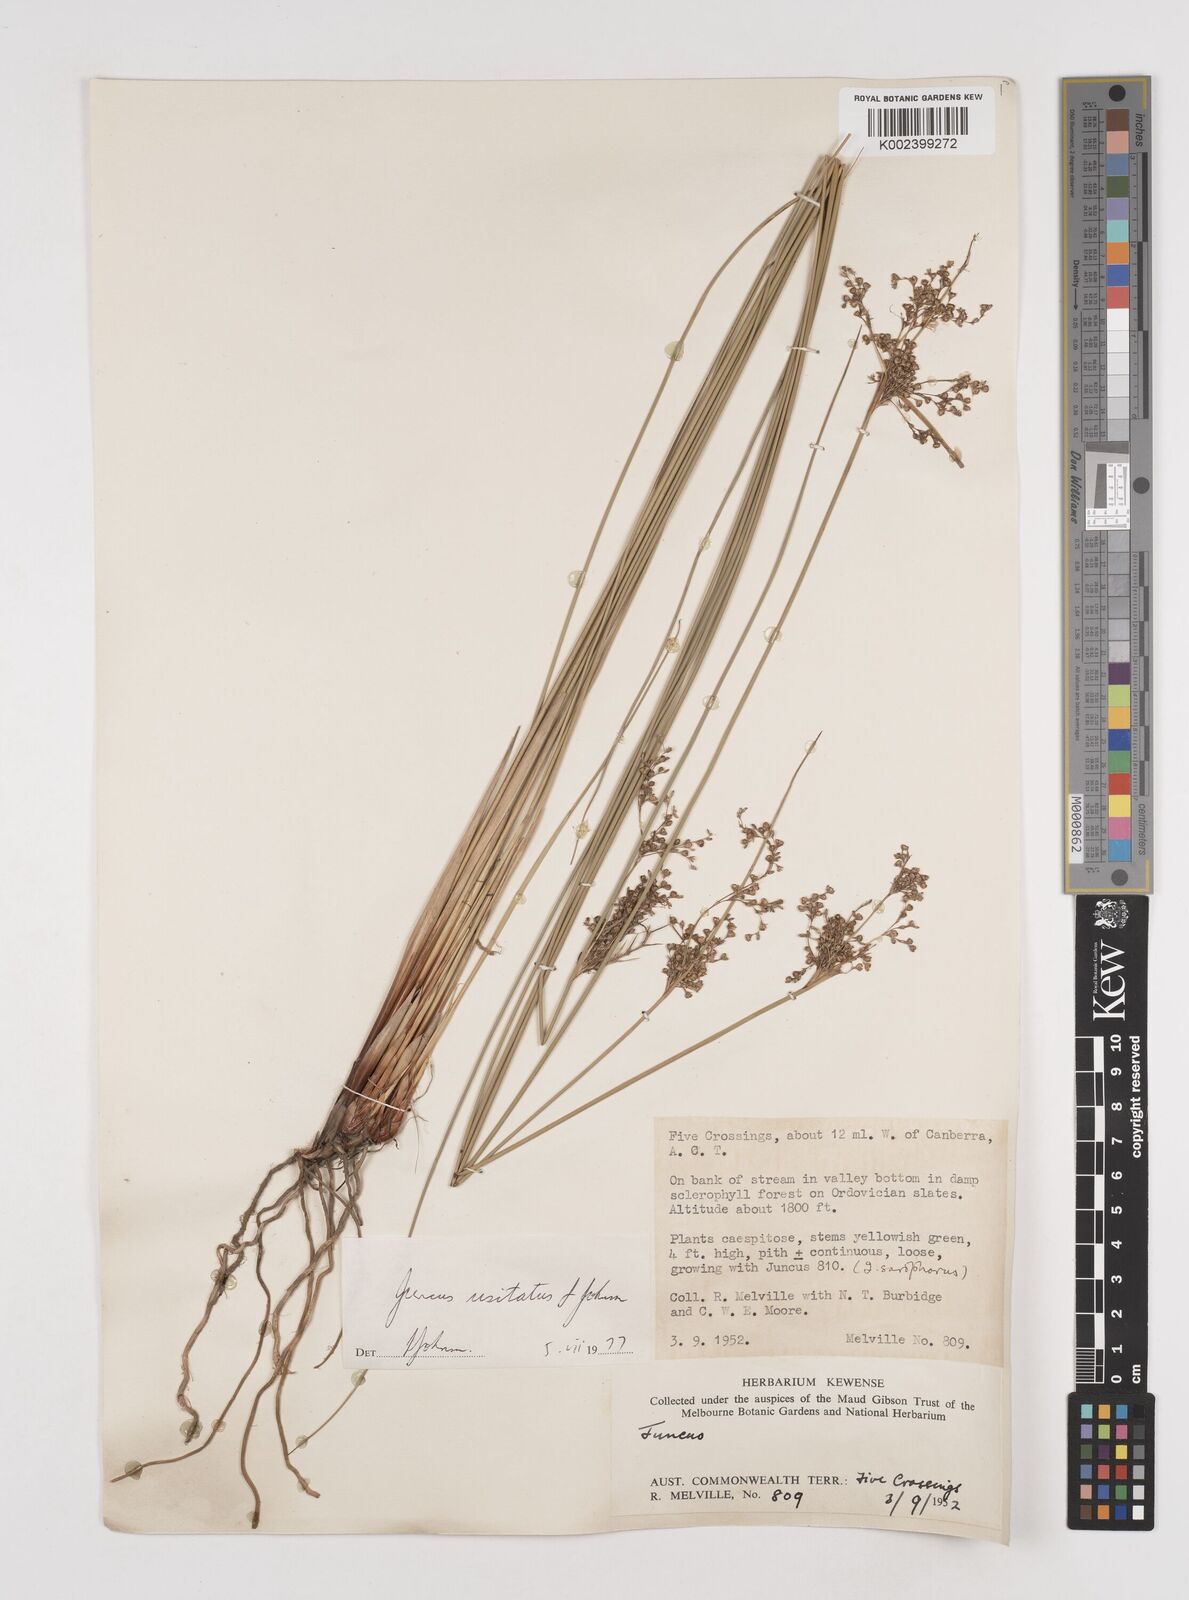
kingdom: Plantae
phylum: Tracheophyta
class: Liliopsida
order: Poales
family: Juncaceae
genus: Juncus
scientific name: Juncus usitatus
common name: Rush
